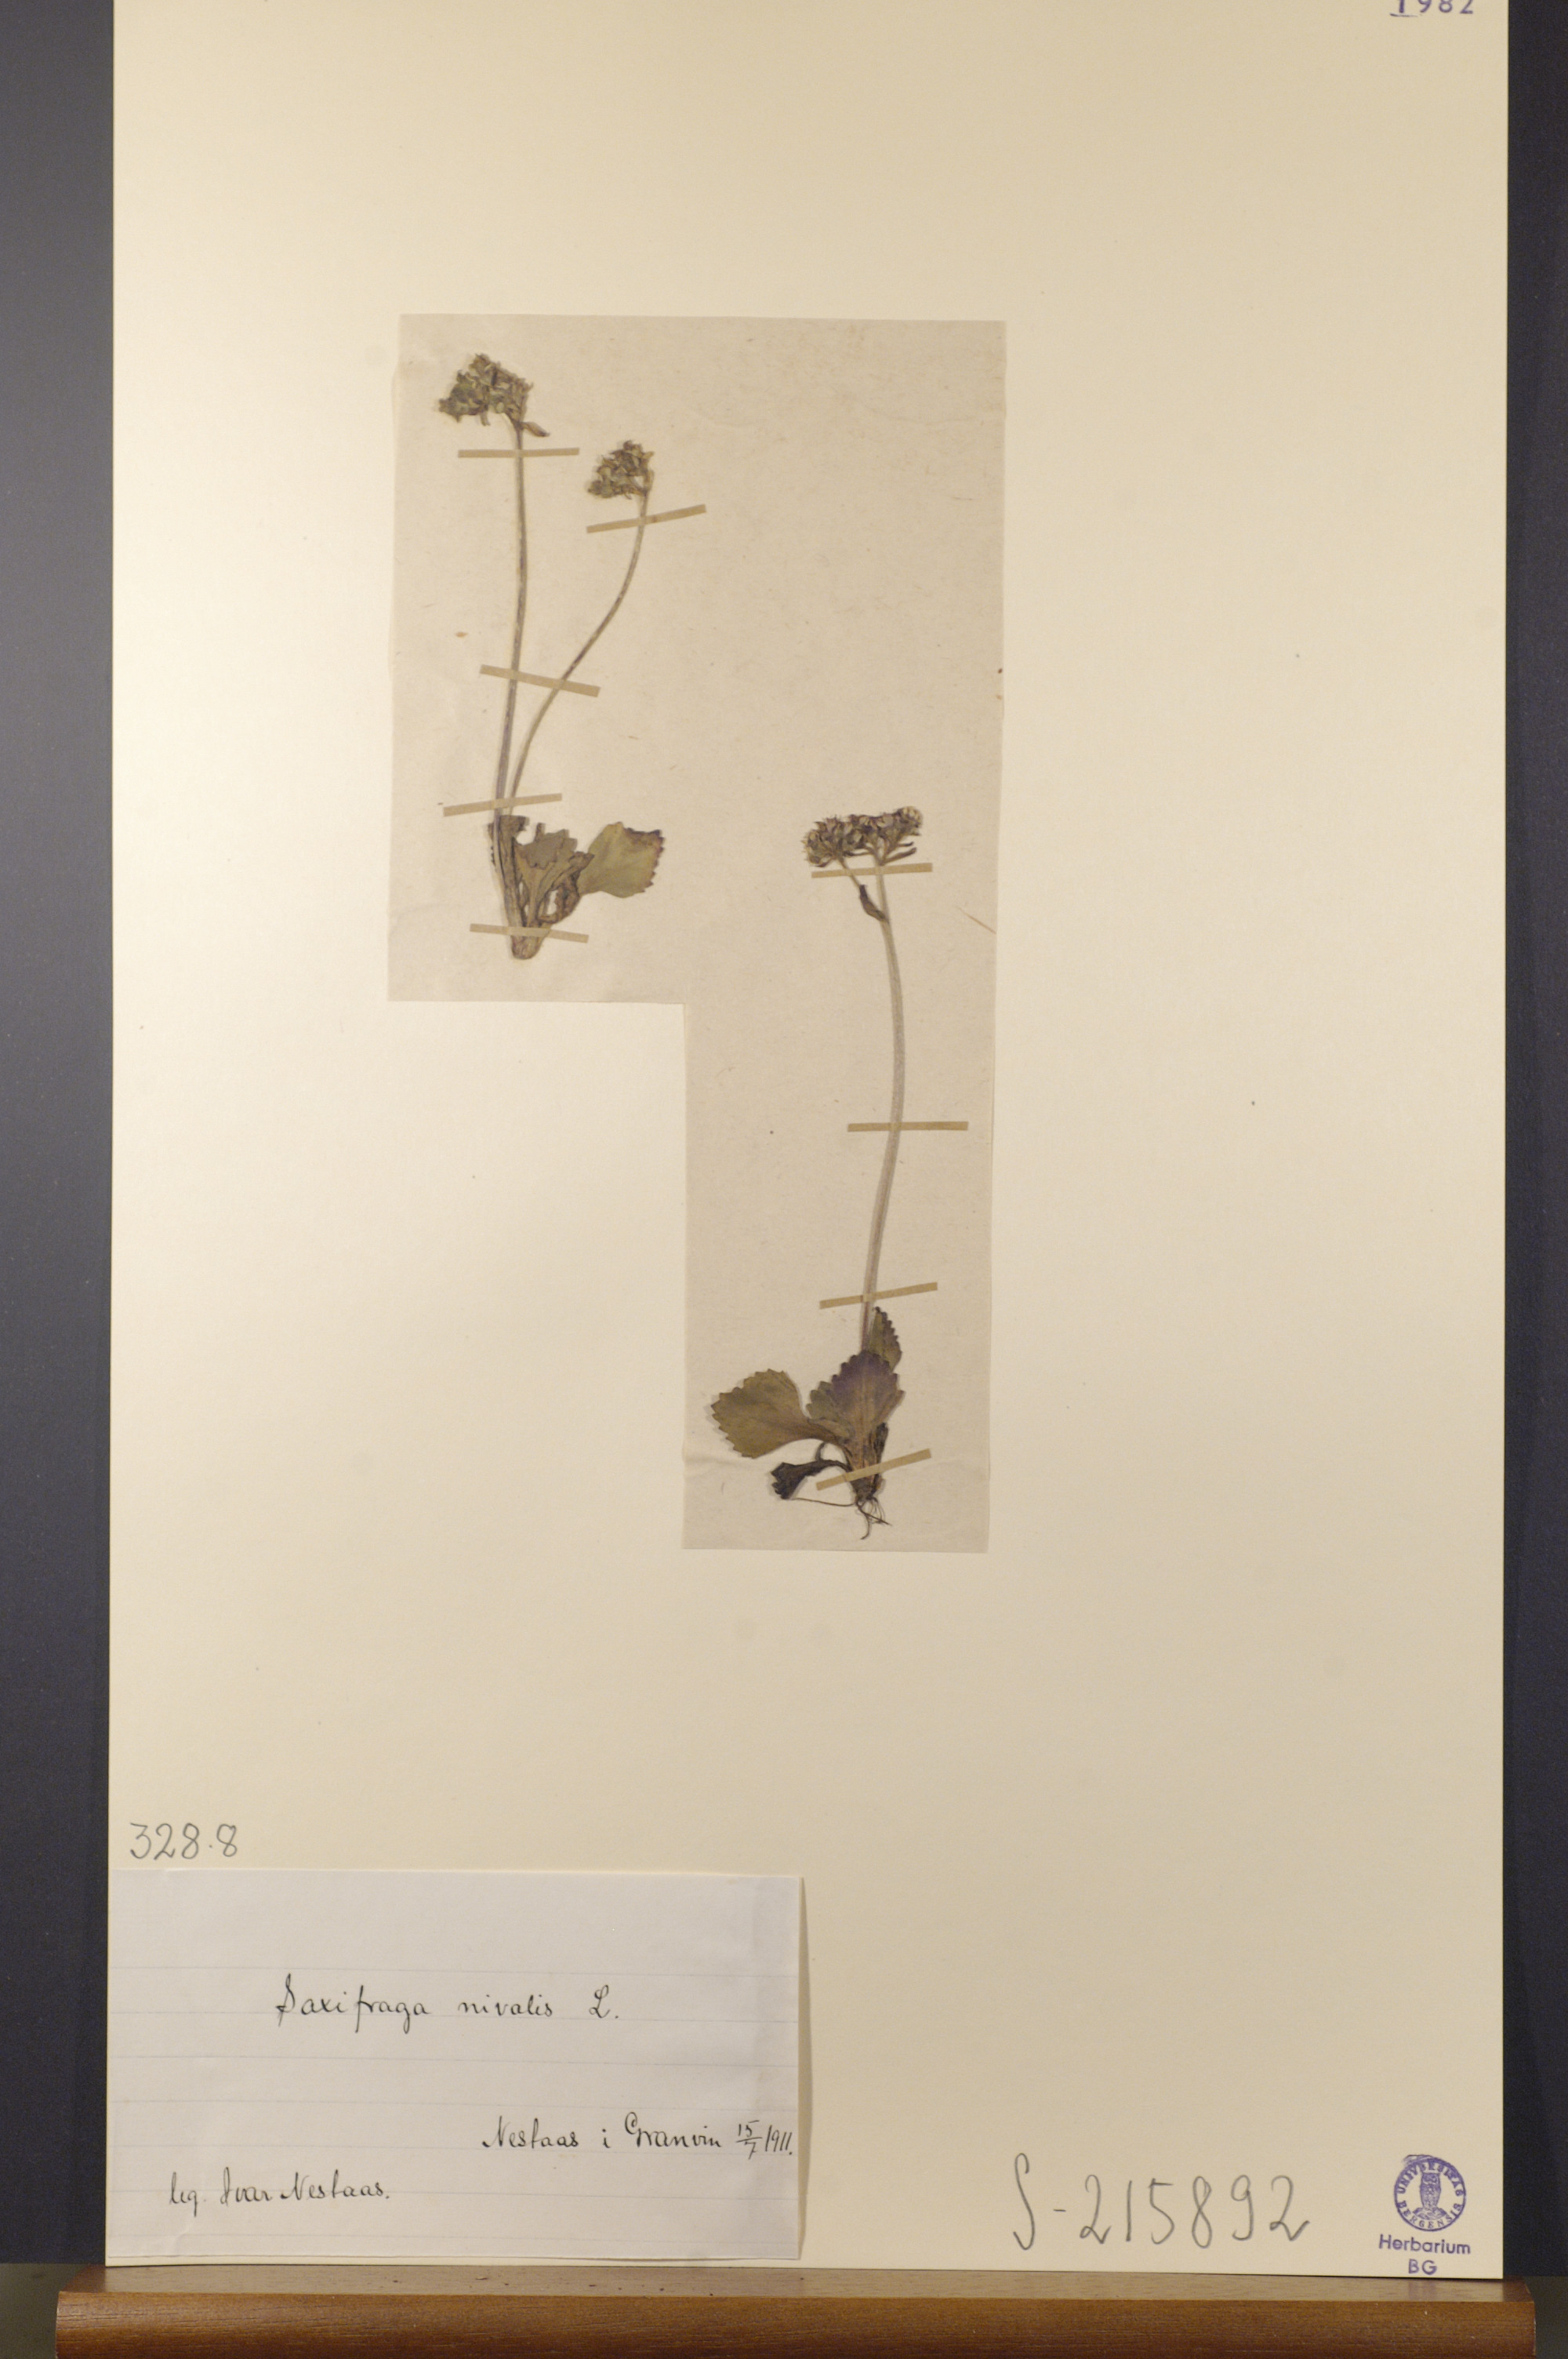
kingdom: Plantae
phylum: Tracheophyta
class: Magnoliopsida
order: Saxifragales
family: Saxifragaceae
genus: Micranthes
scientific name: Micranthes nivalis
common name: Alpine saxifrage
